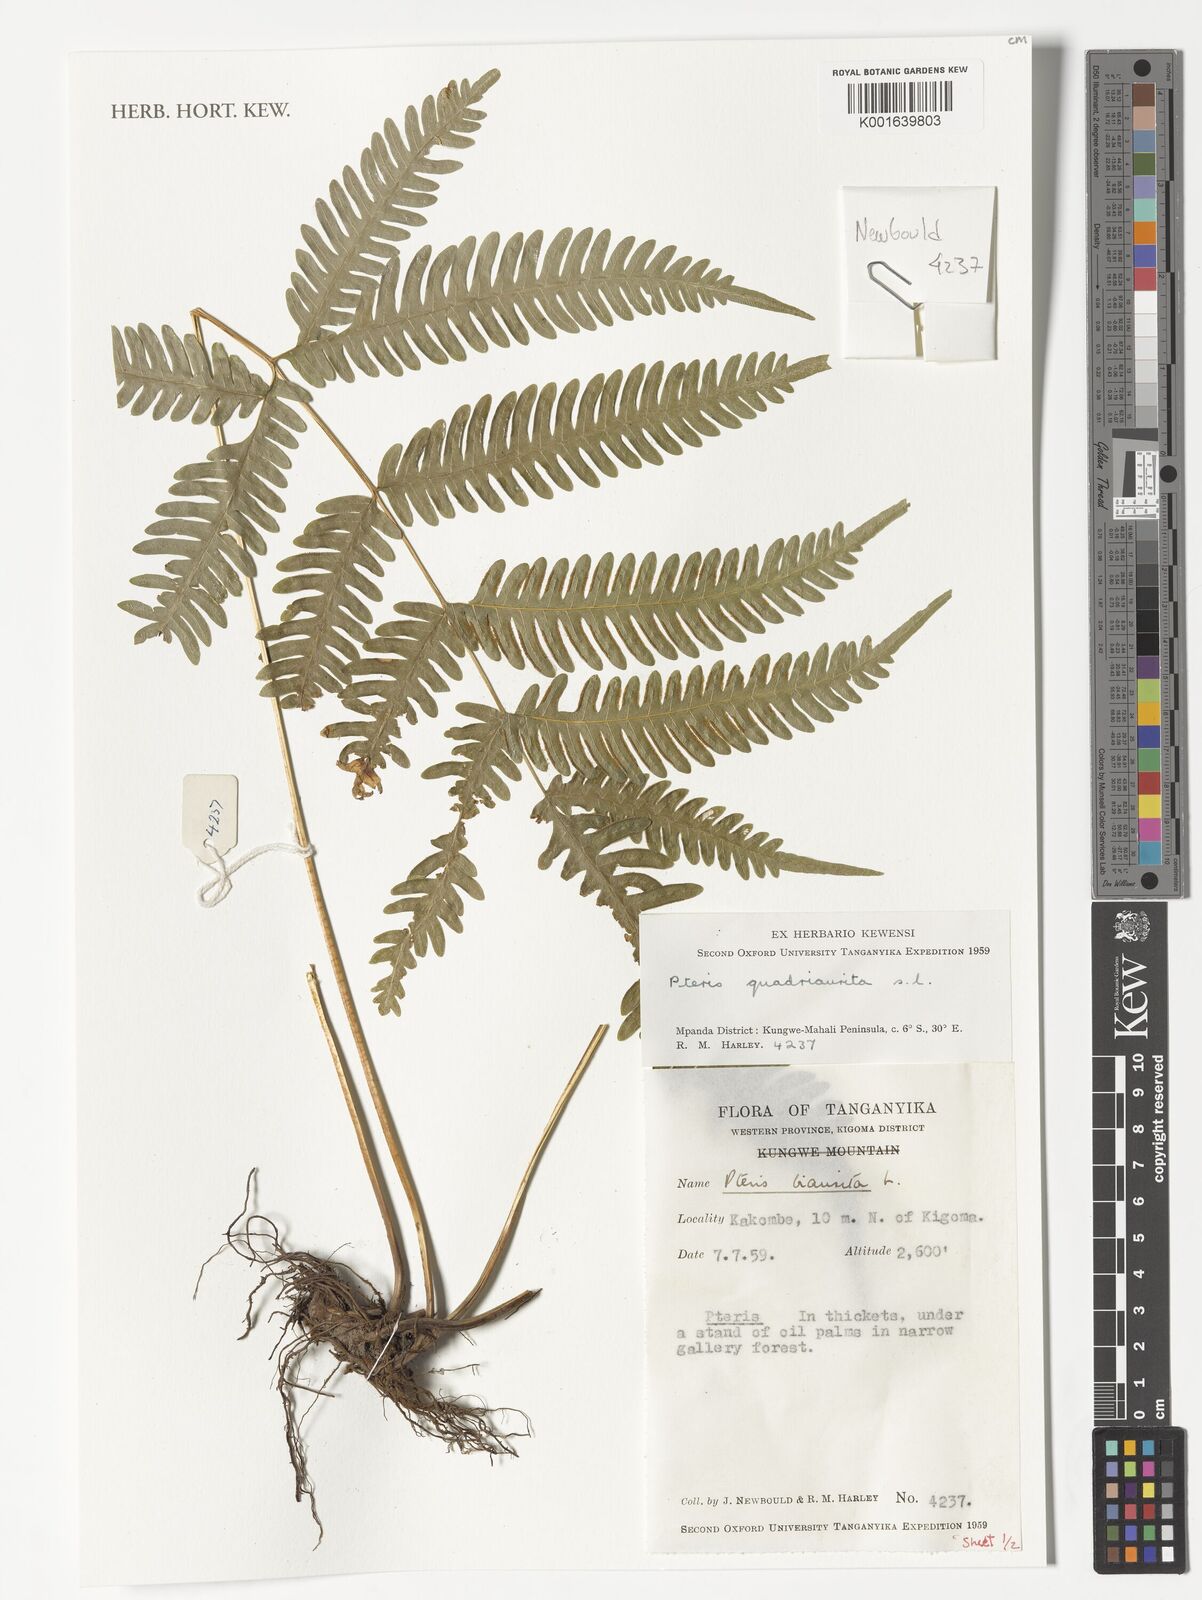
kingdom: Plantae
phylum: Tracheophyta
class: Polypodiopsida
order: Polypodiales
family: Pteridaceae
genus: Pteris
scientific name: Pteris quadriaurita
